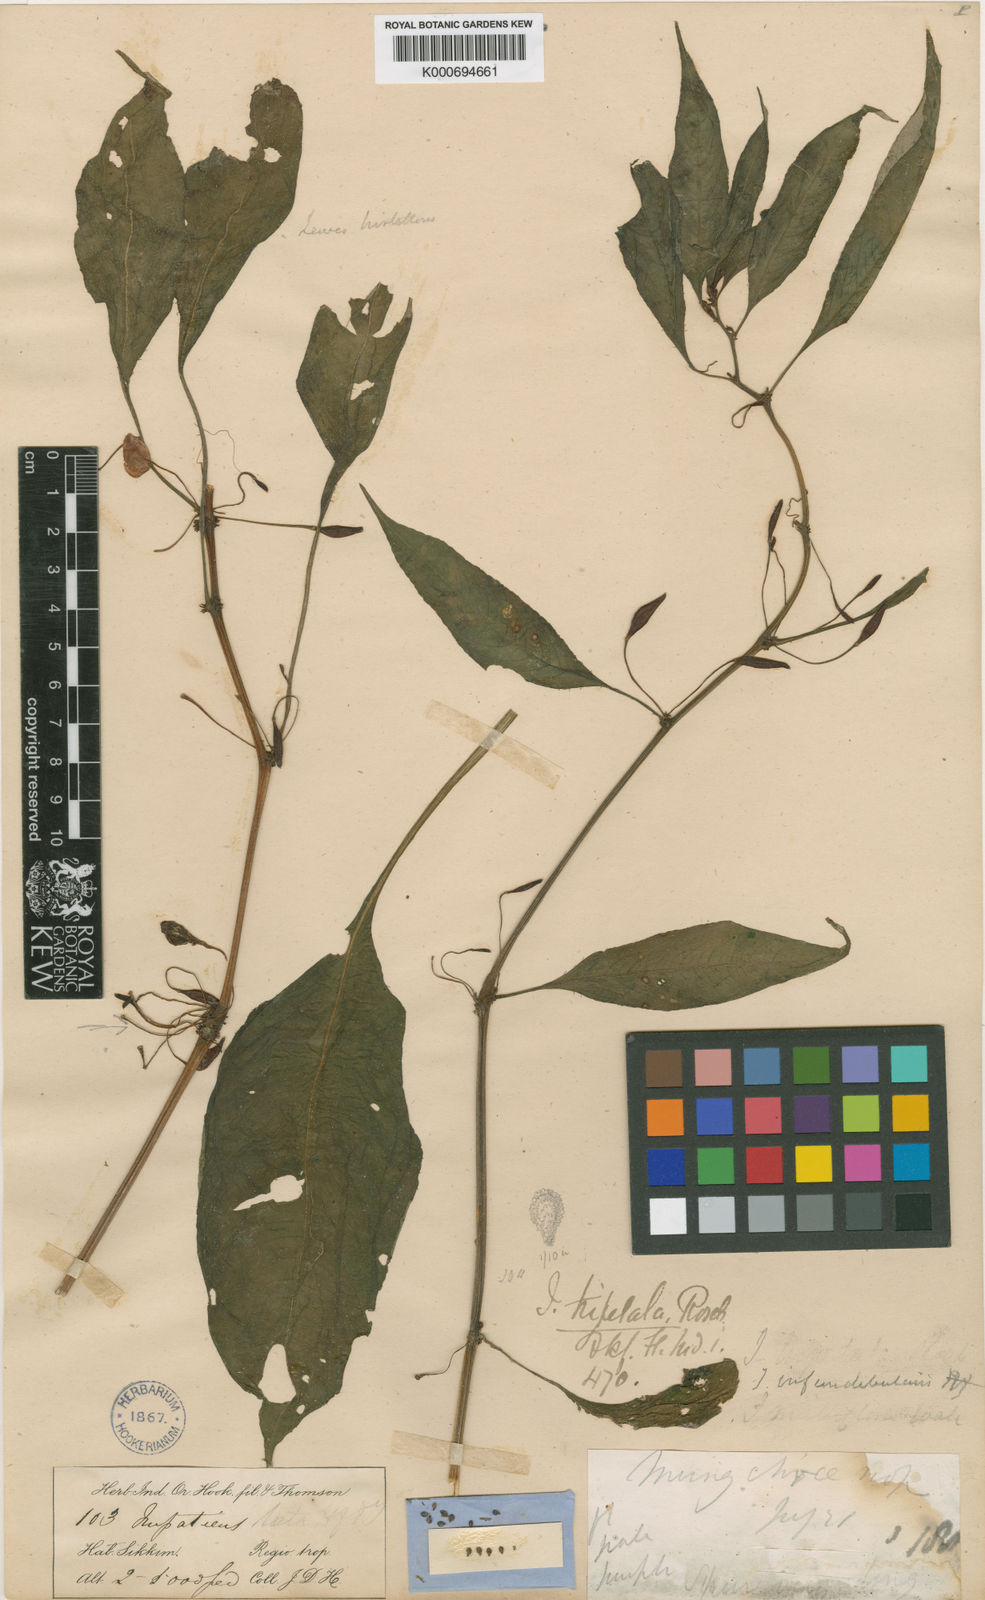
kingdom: Plantae
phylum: Tracheophyta
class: Magnoliopsida
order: Ericales
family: Balsaminaceae
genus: Impatiens
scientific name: Impatiens infundibularis
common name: The kurseong balsam
